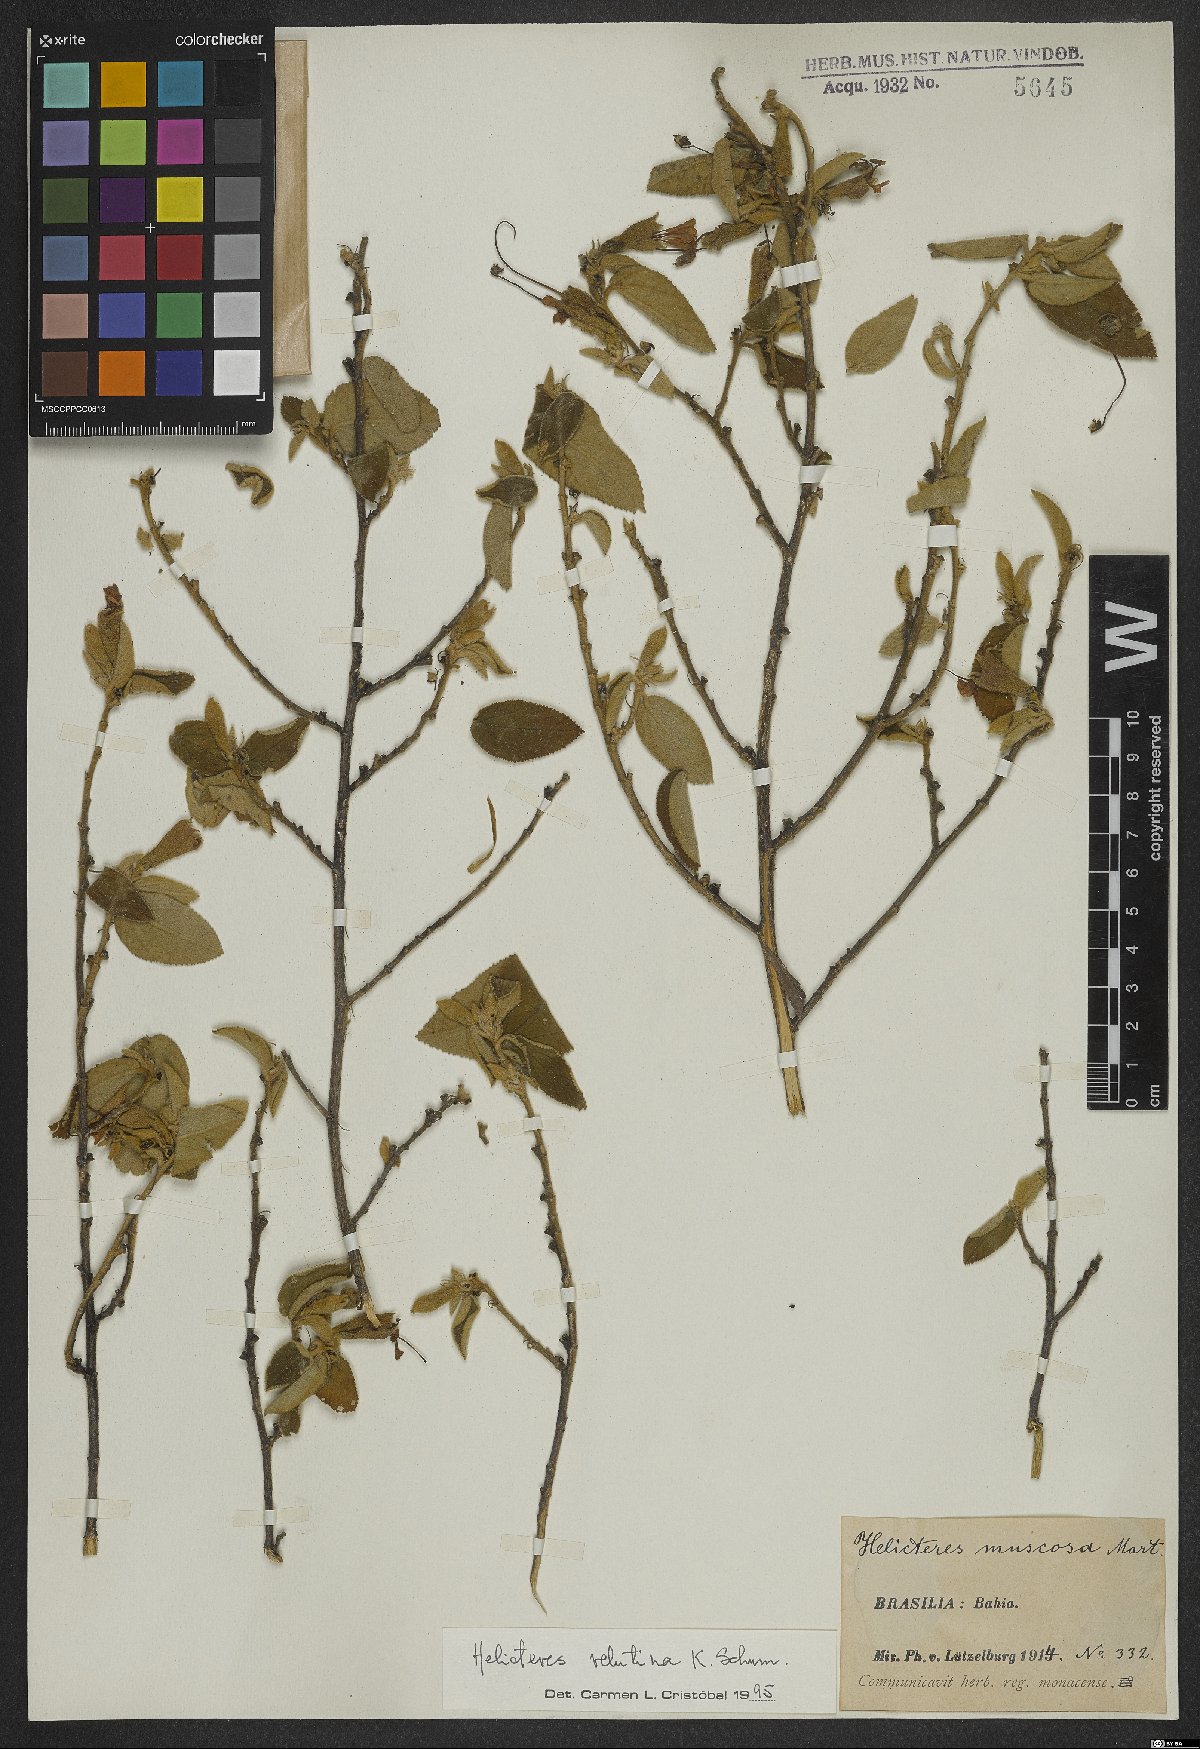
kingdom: Plantae
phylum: Tracheophyta
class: Magnoliopsida
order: Malvales
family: Malvaceae
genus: Helicteres
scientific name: Helicteres velutina
